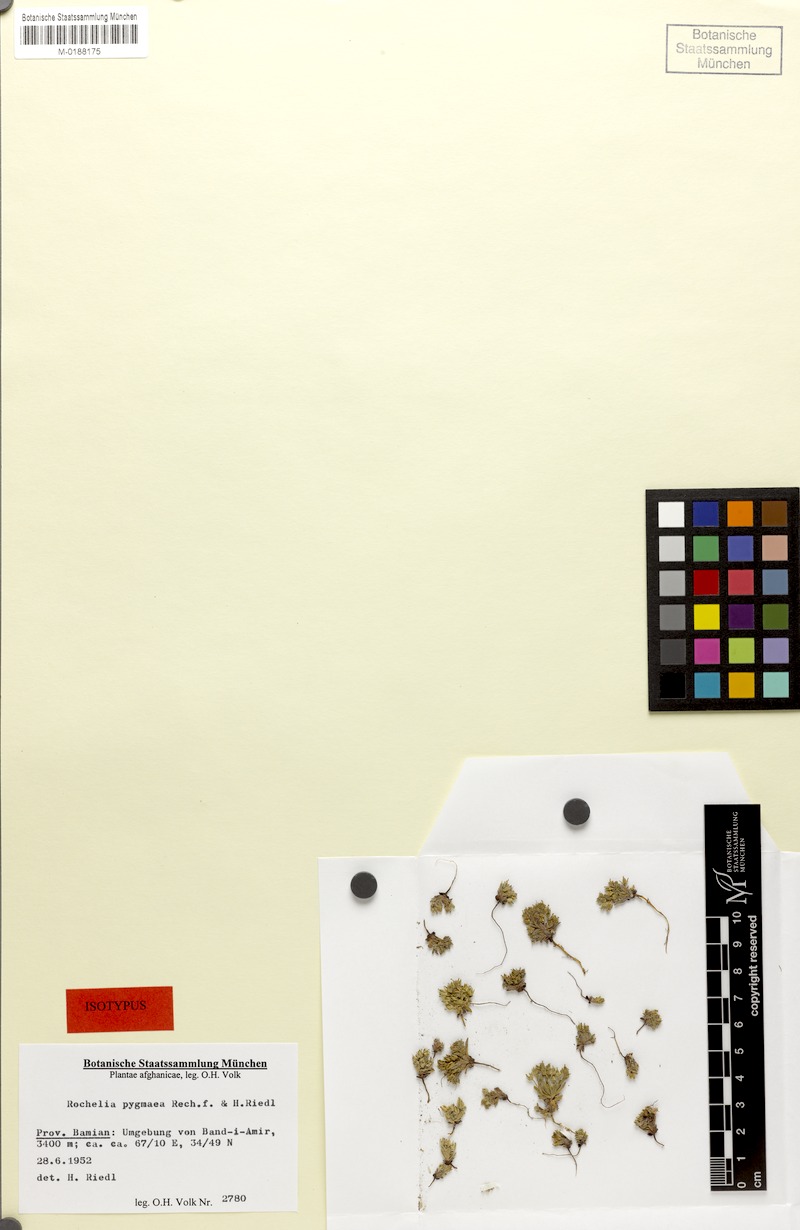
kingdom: Plantae
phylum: Tracheophyta
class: Magnoliopsida
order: Boraginales
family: Boraginaceae
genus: Rochelia
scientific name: Rochelia rectipes
